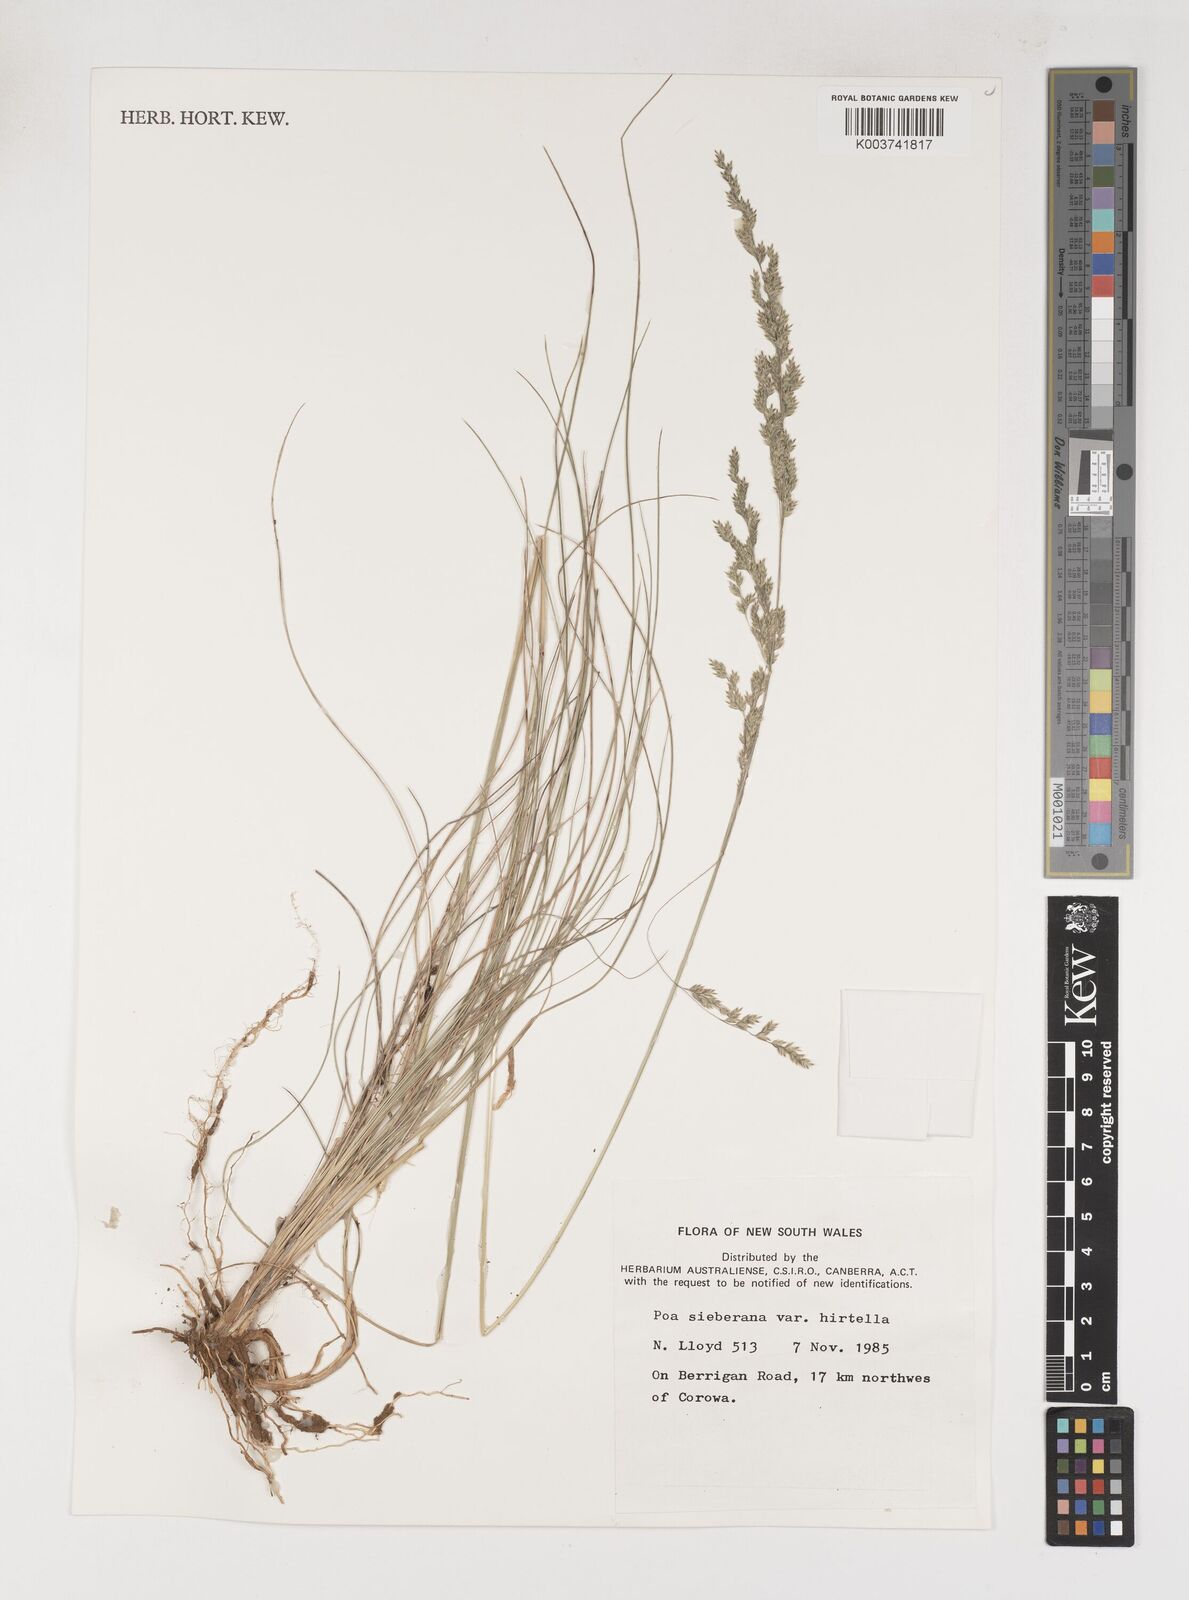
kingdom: Plantae
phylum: Tracheophyta
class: Liliopsida
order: Poales
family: Poaceae
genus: Poa
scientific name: Poa sieberiana
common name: Tussock poa
